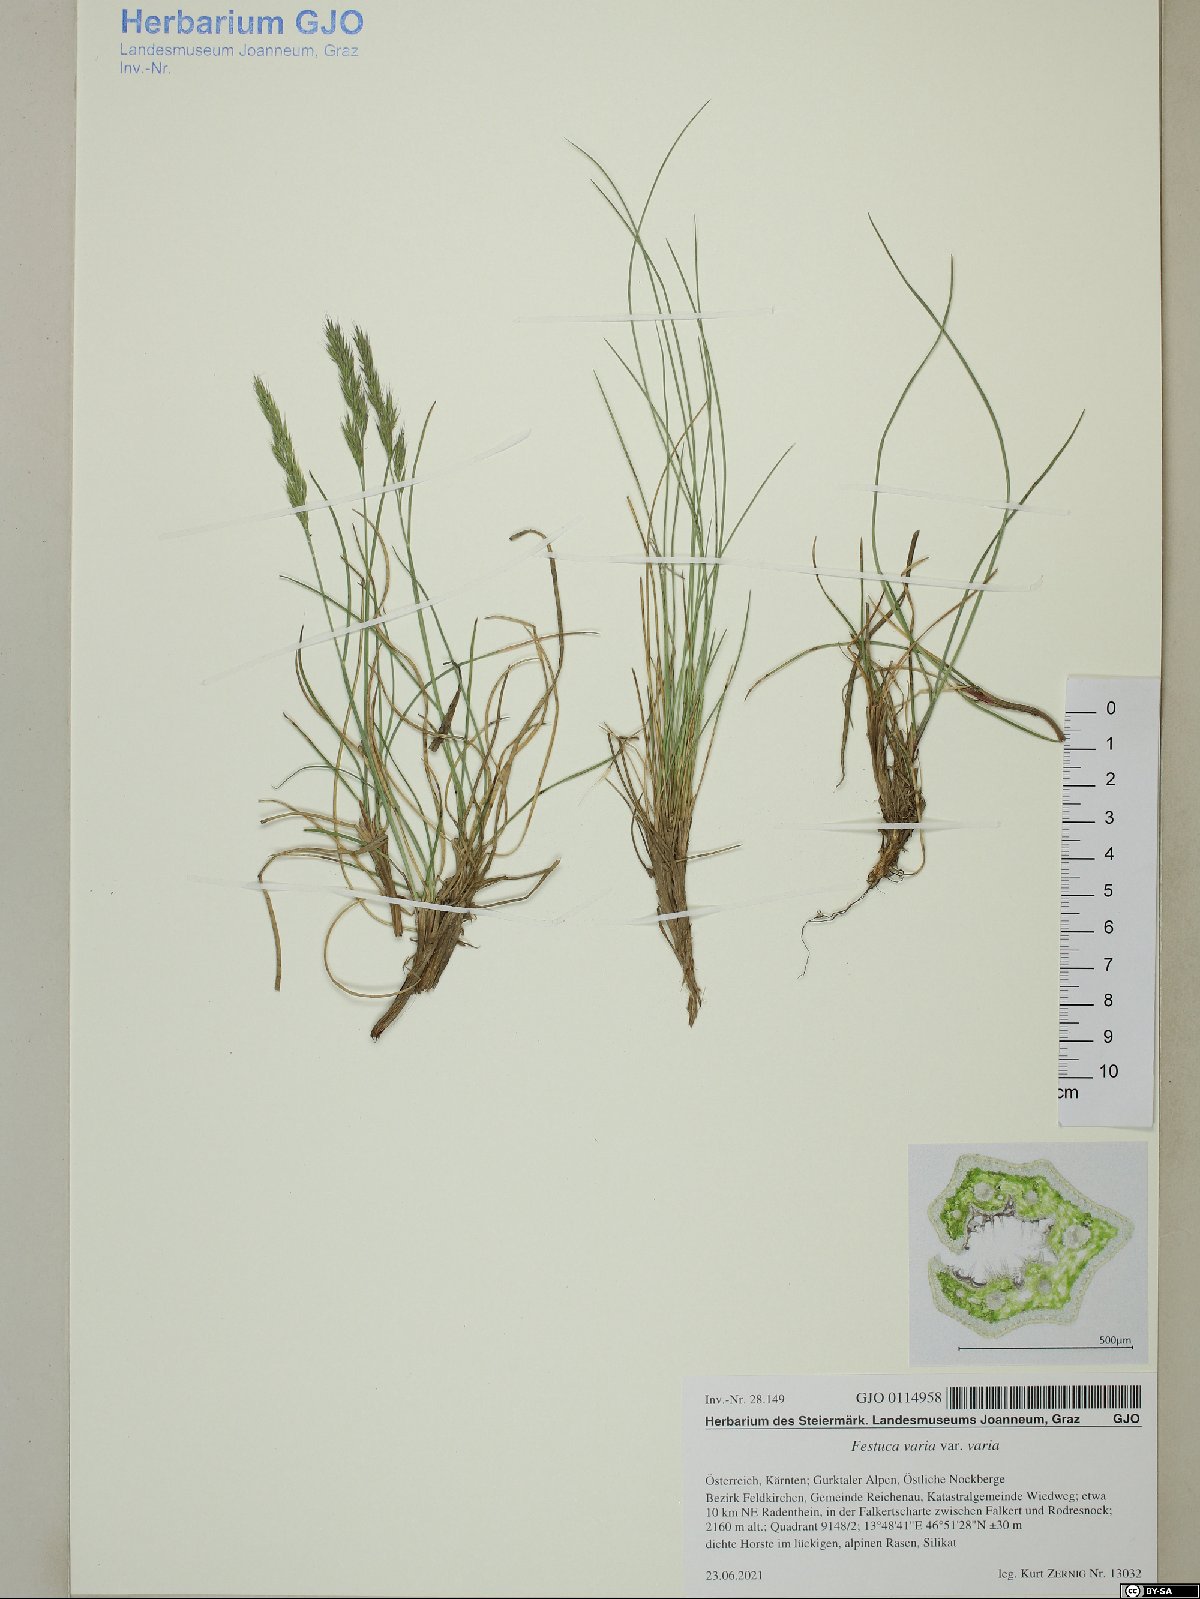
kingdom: Plantae
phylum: Tracheophyta
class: Liliopsida
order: Poales
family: Poaceae
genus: Festuca
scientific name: Festuca varia
